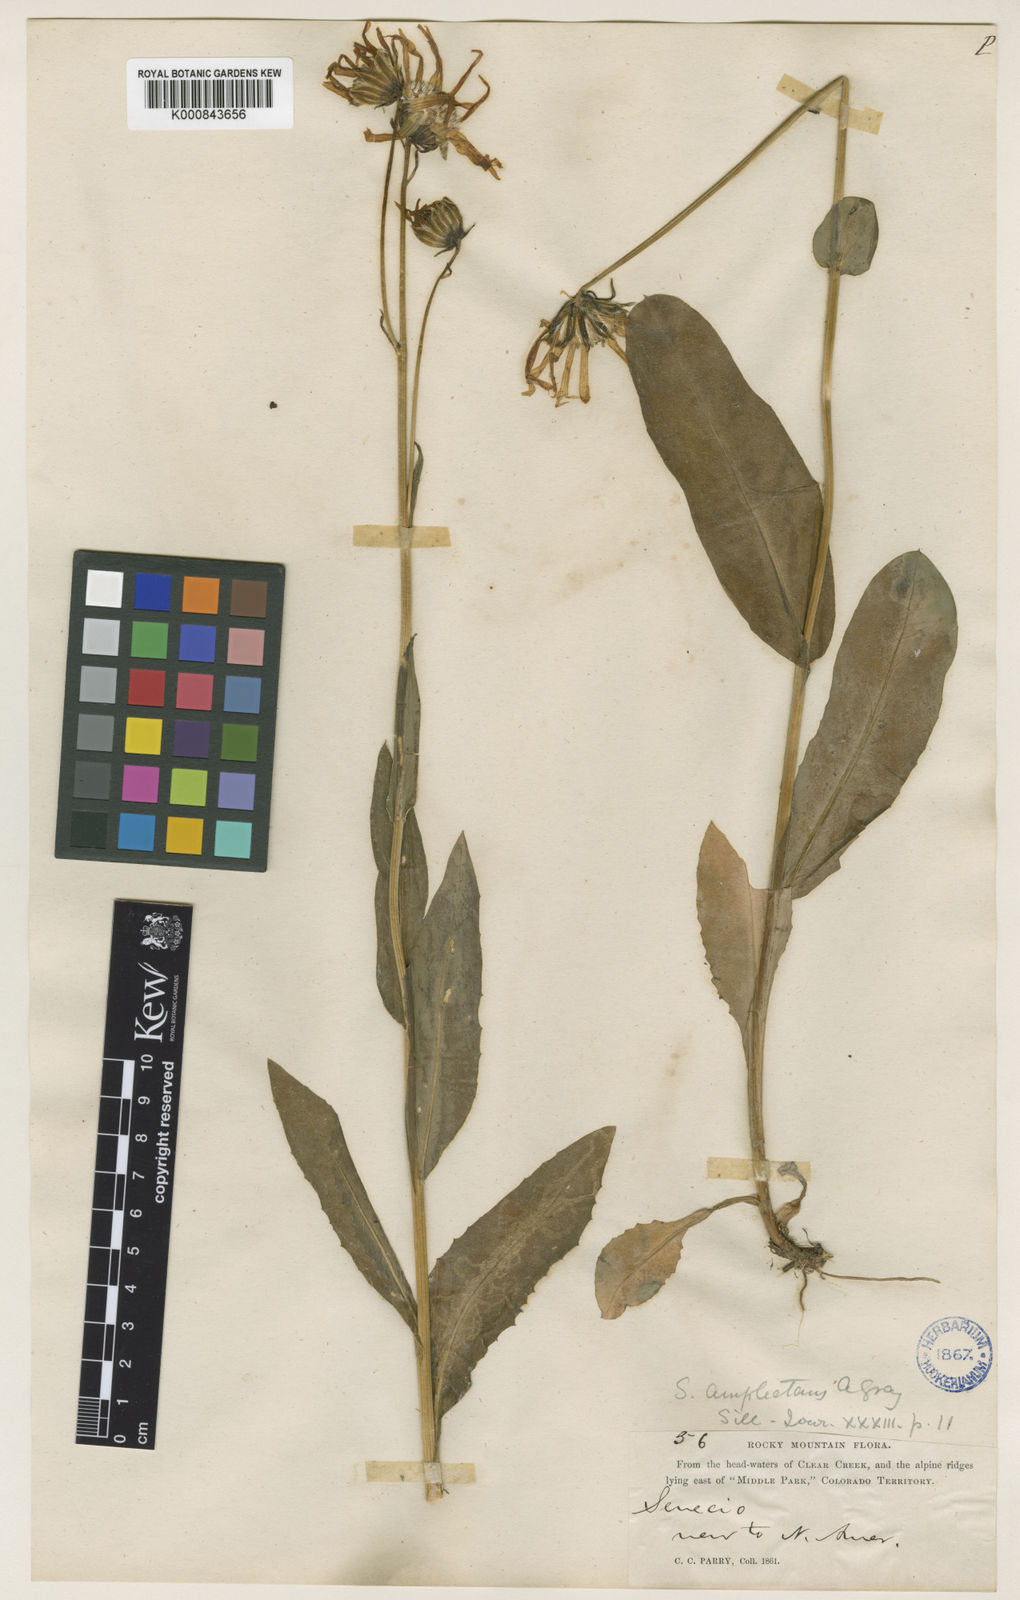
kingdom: Plantae
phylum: Tracheophyta
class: Magnoliopsida
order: Asterales
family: Asteraceae
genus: Senecio
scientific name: Senecio amplectens
